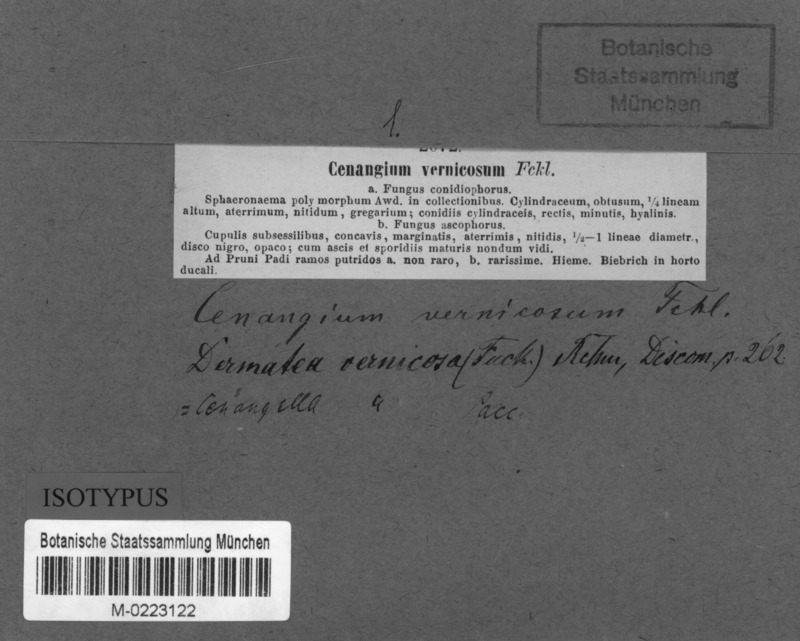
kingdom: Fungi
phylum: Ascomycota
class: Leotiomycetes
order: Helotiales
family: Dermateaceae
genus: Dermea
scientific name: Dermea vernicosa
